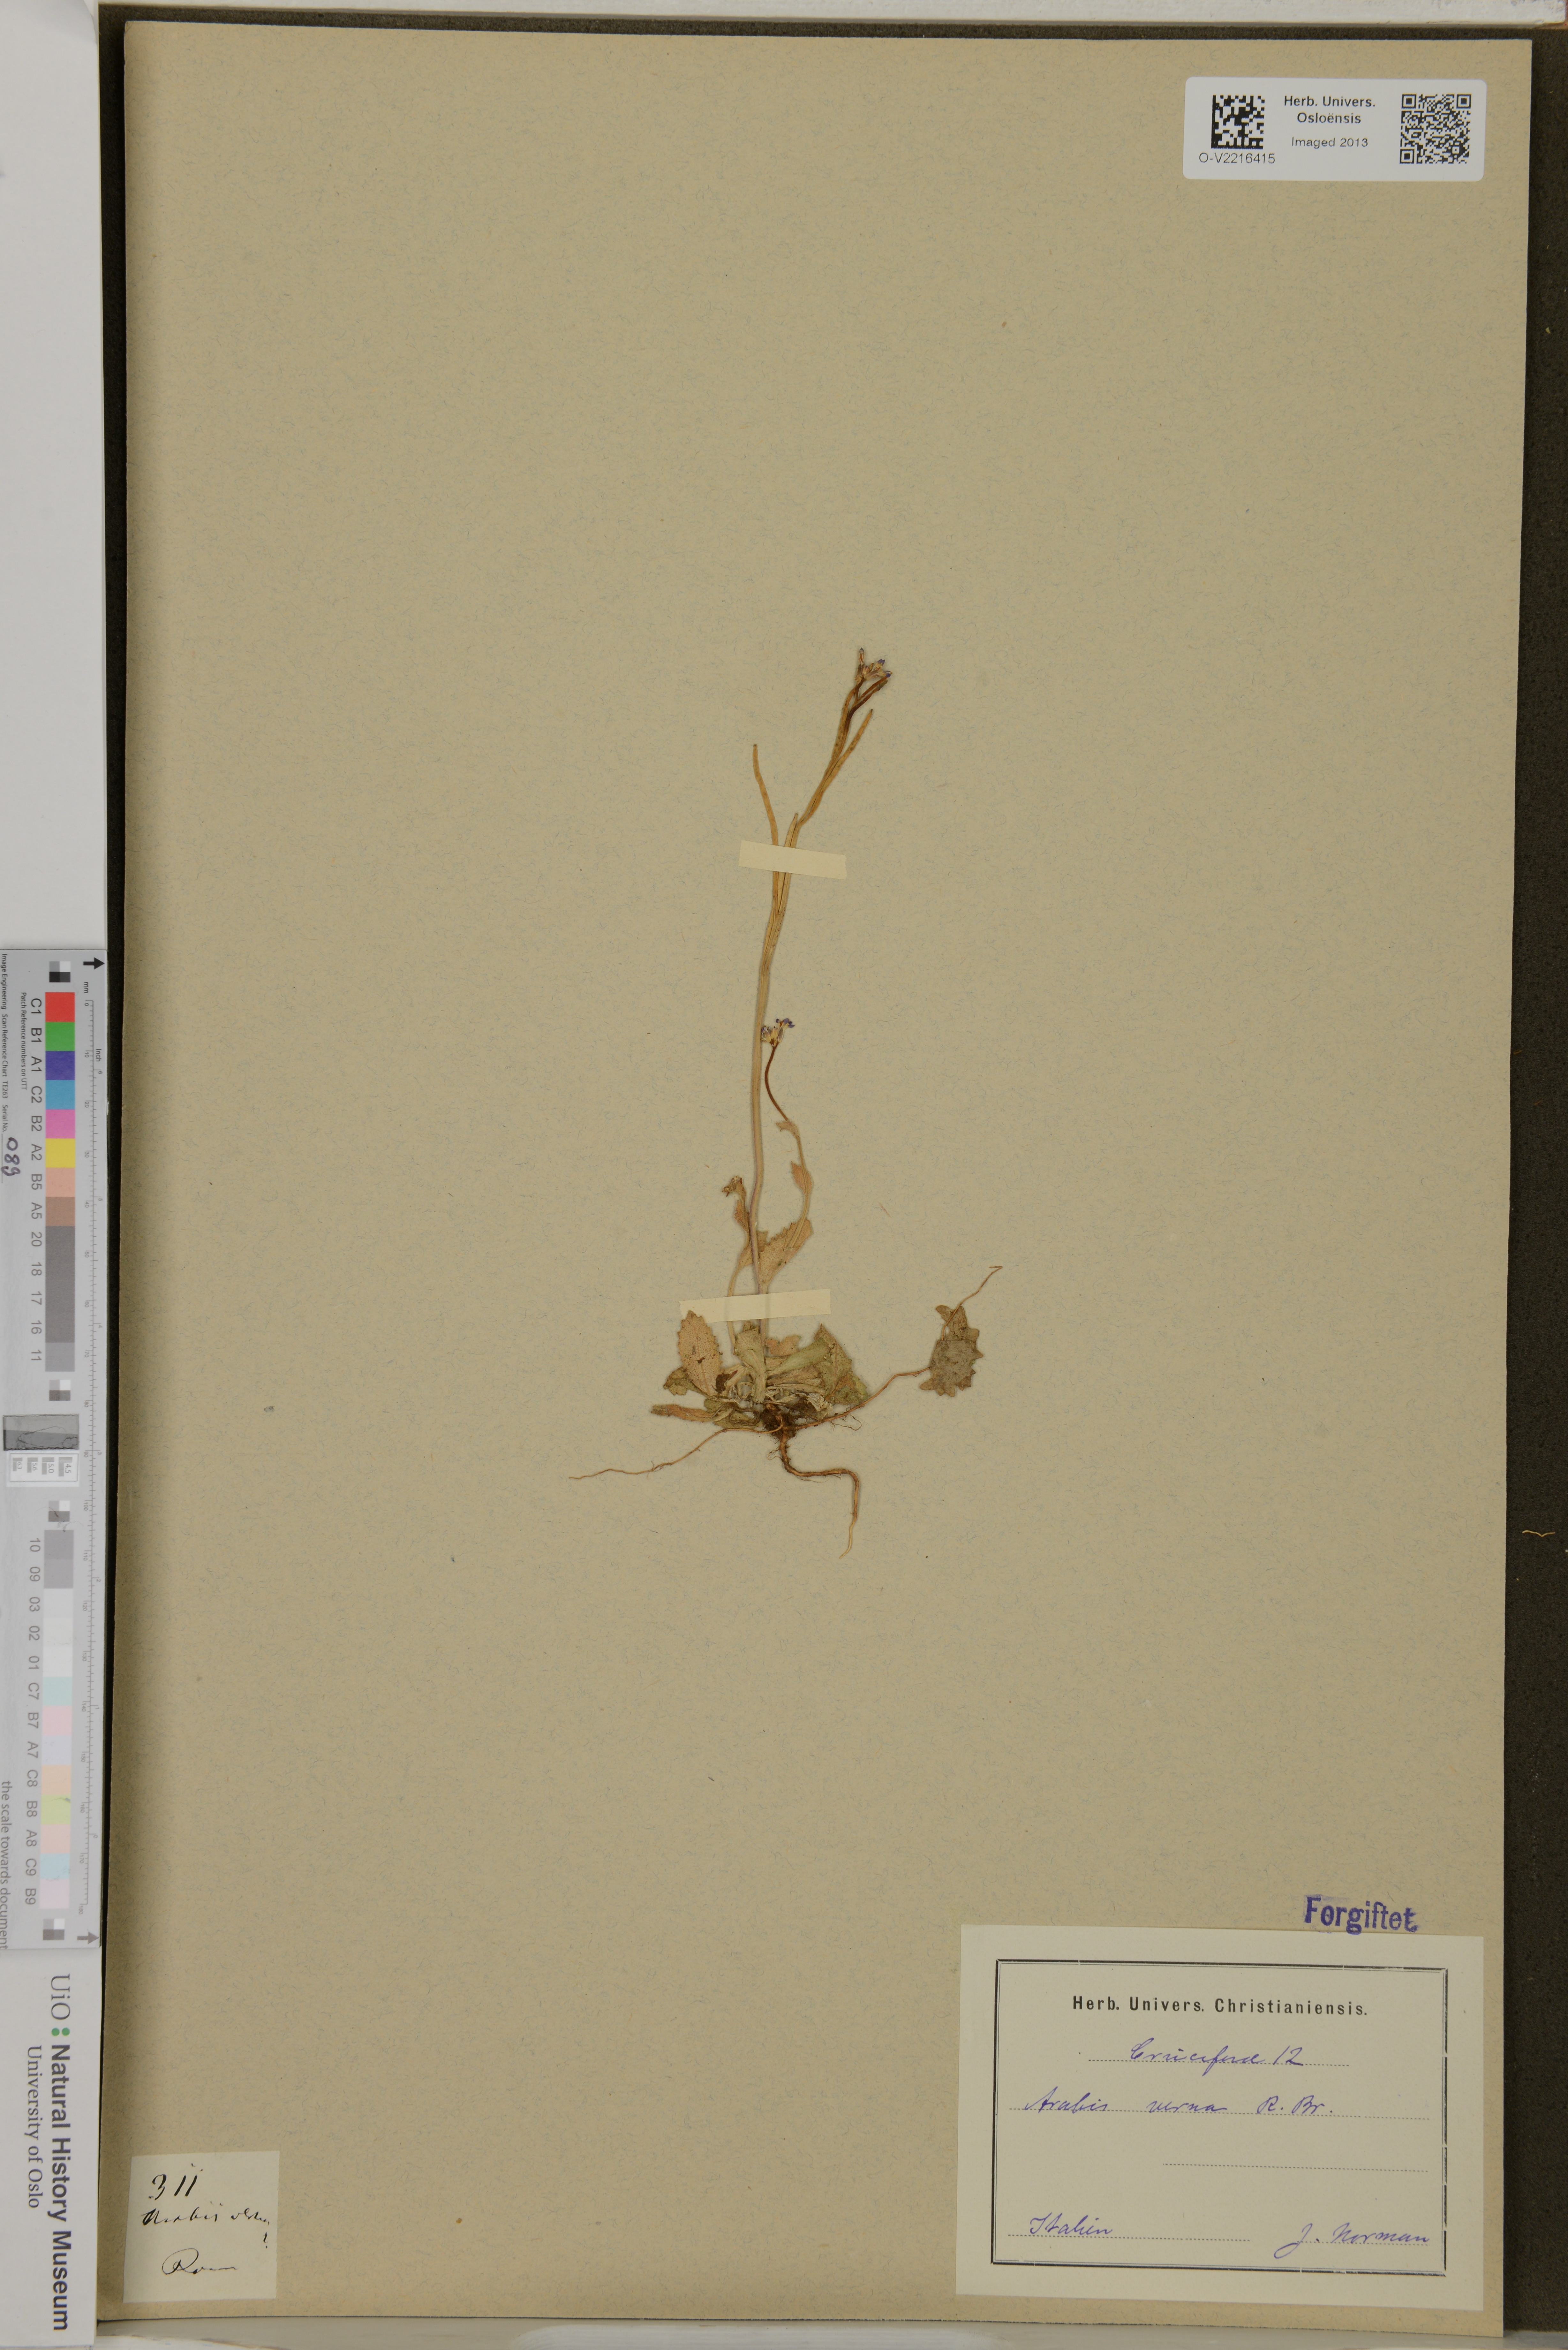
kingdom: Plantae
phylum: Tracheophyta
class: Magnoliopsida
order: Brassicales
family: Brassicaceae
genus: Arabis
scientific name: Arabis verna
